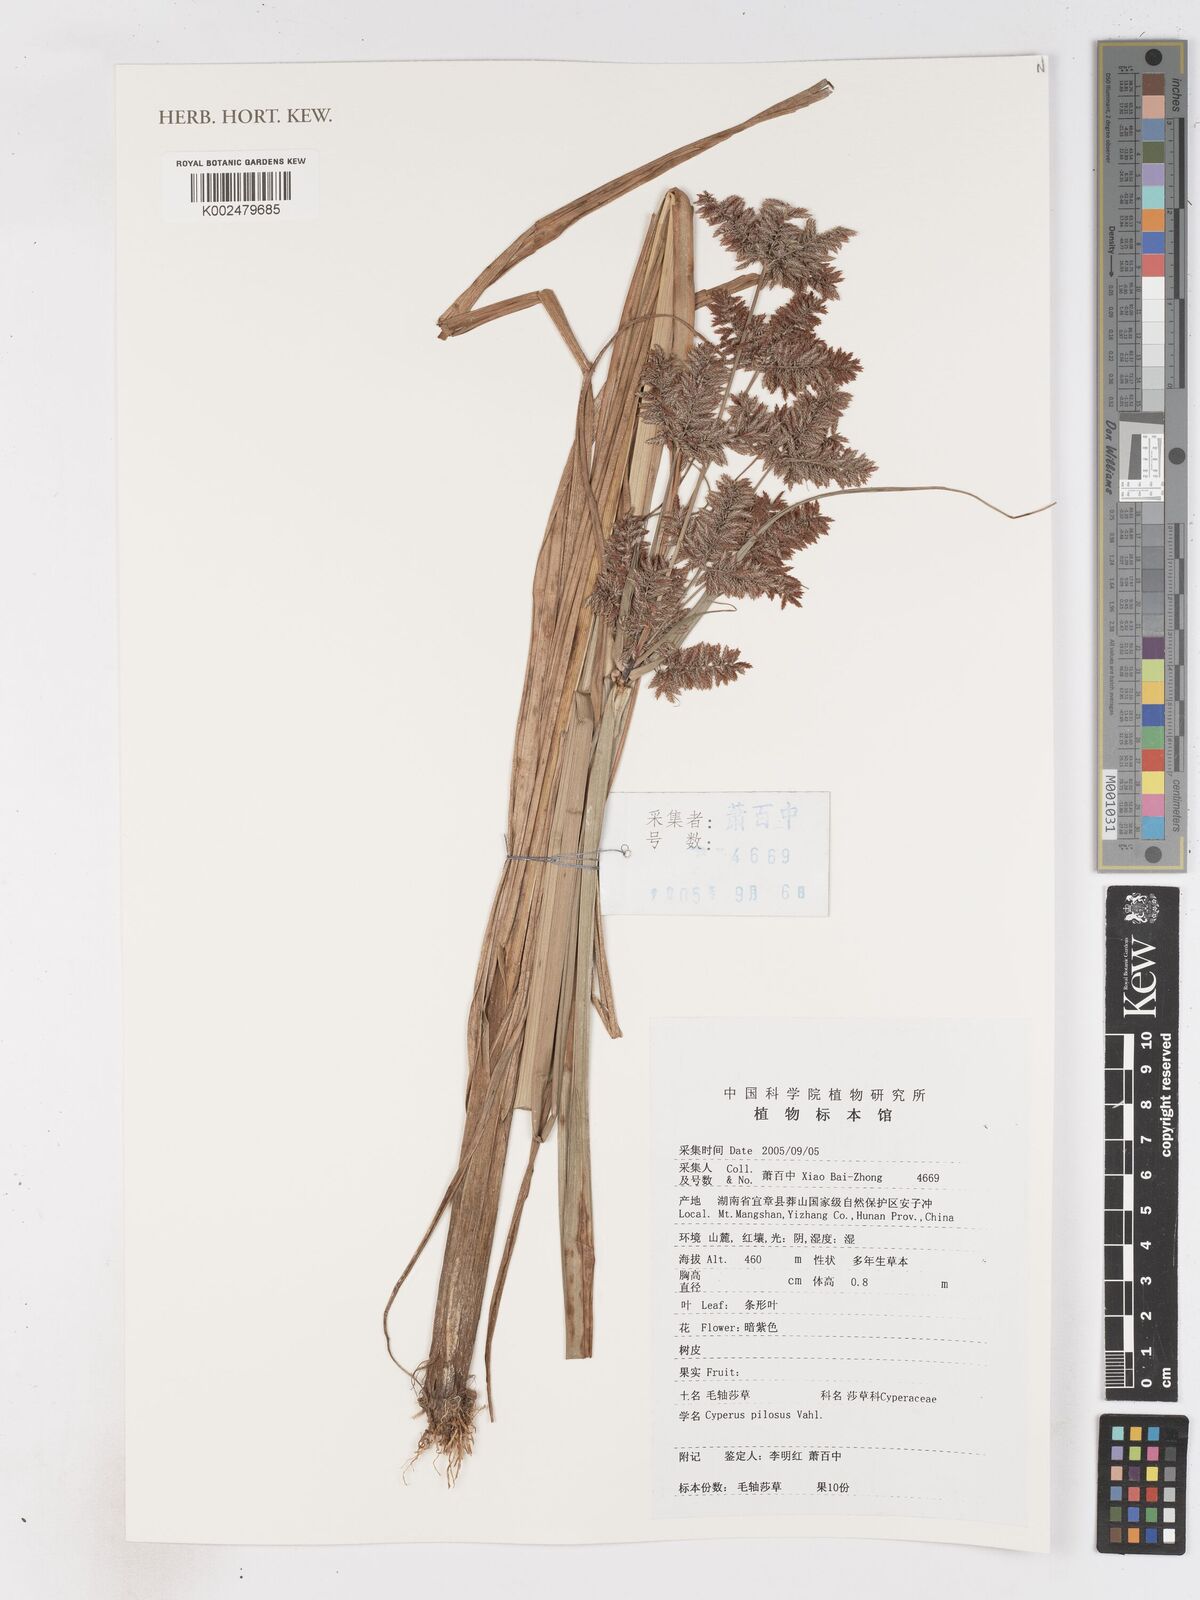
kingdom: Plantae
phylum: Tracheophyta
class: Liliopsida
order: Poales
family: Cyperaceae
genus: Cyperus
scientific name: Cyperus pilosus
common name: Fuzzy flatsedge
